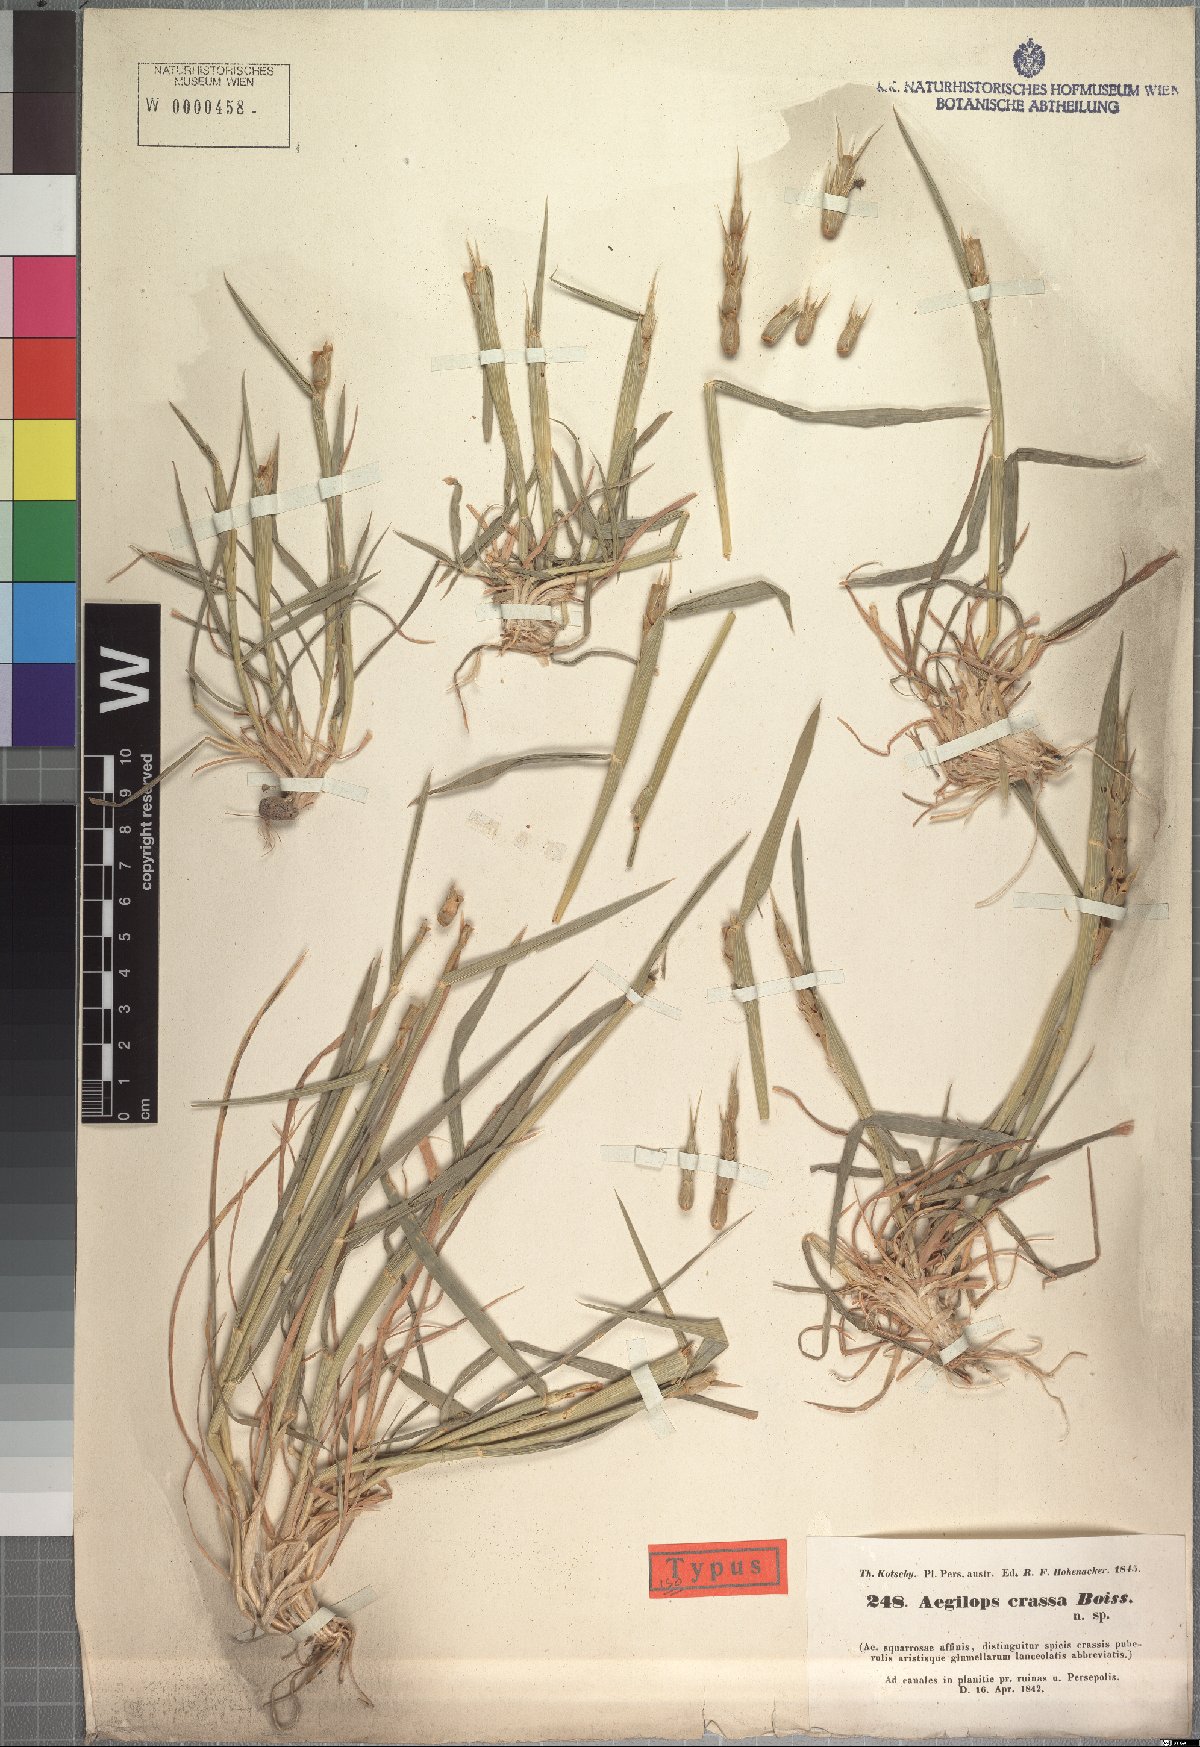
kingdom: Plantae
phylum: Tracheophyta
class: Liliopsida
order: Poales
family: Poaceae
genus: Aegilops
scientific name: Aegilops crassa
